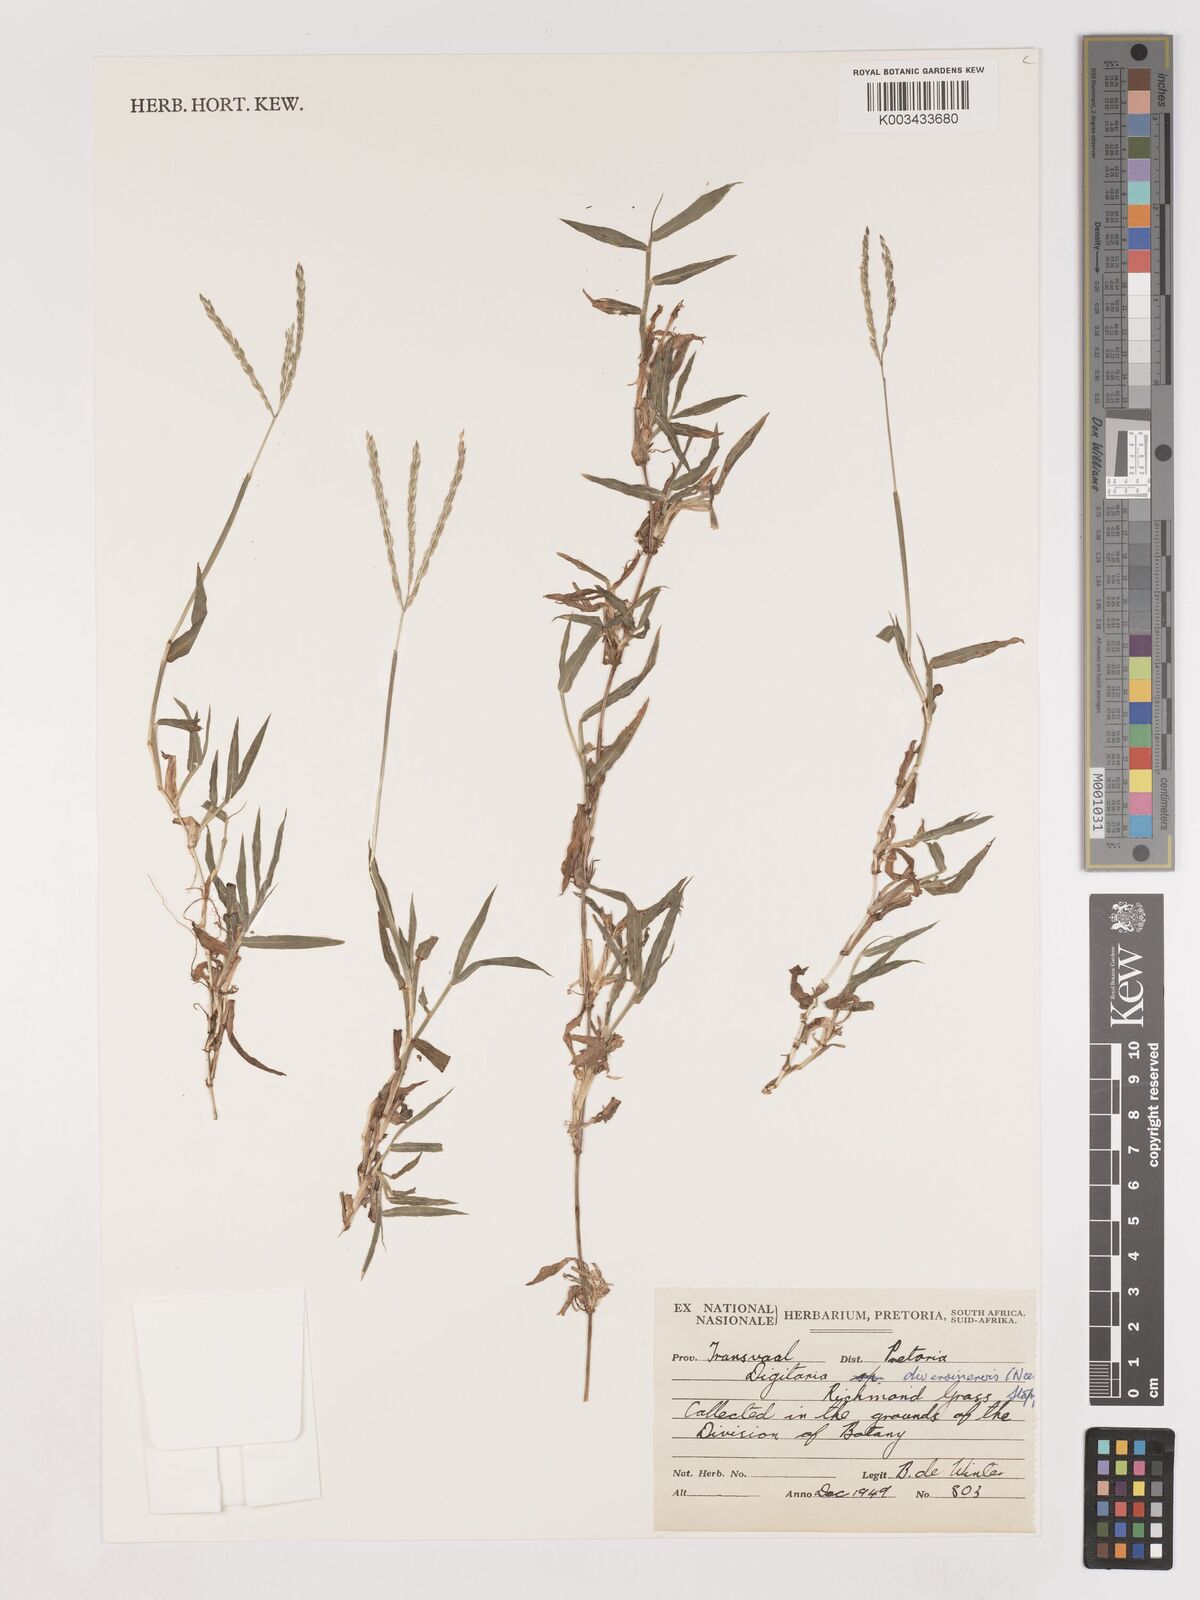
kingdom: Plantae
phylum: Tracheophyta
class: Liliopsida
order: Poales
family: Poaceae
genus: Digitaria
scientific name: Digitaria diversinervis
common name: Richmond finger grass
